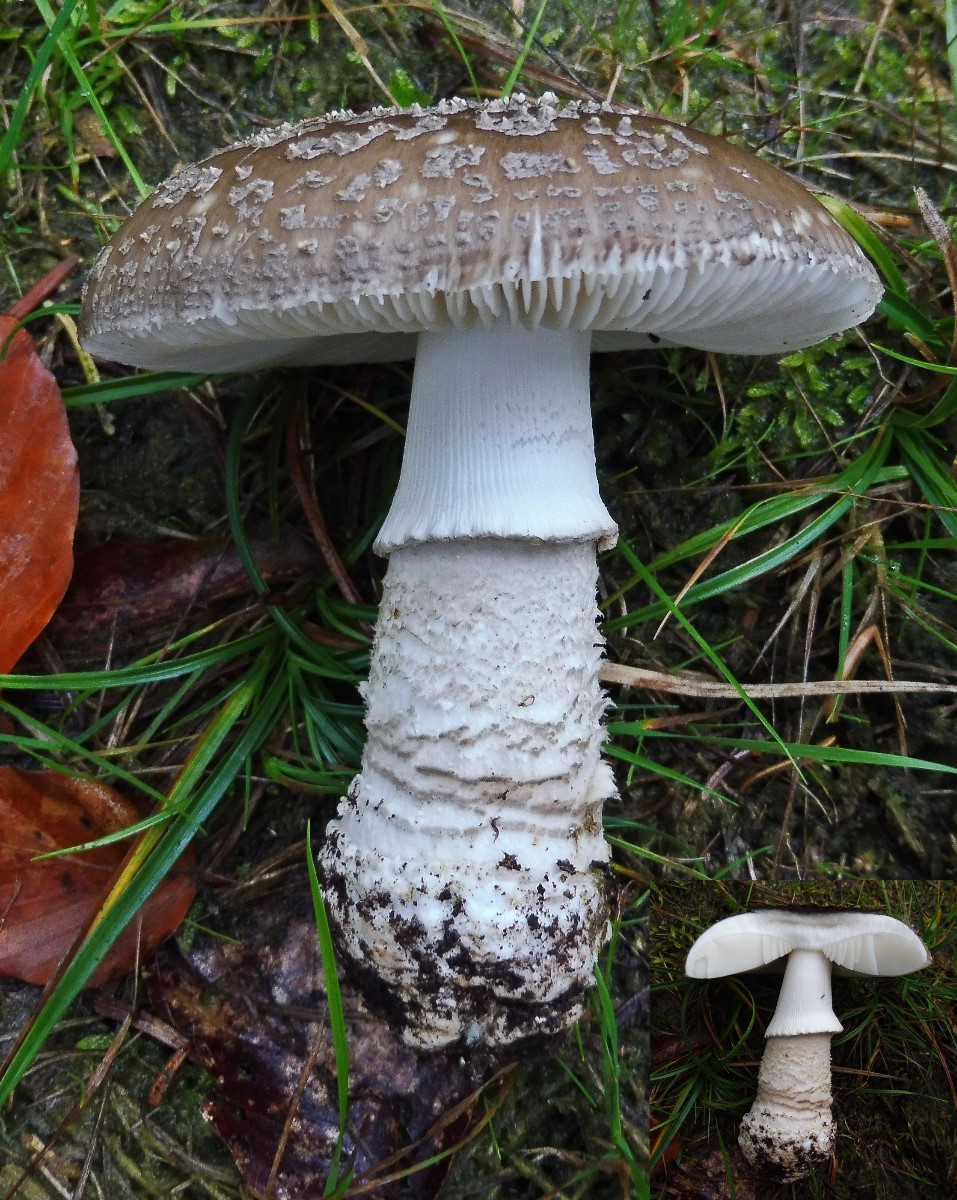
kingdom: Fungi
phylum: Basidiomycota
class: Agaricomycetes
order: Agaricales
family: Amanitaceae
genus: Amanita
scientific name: Amanita
